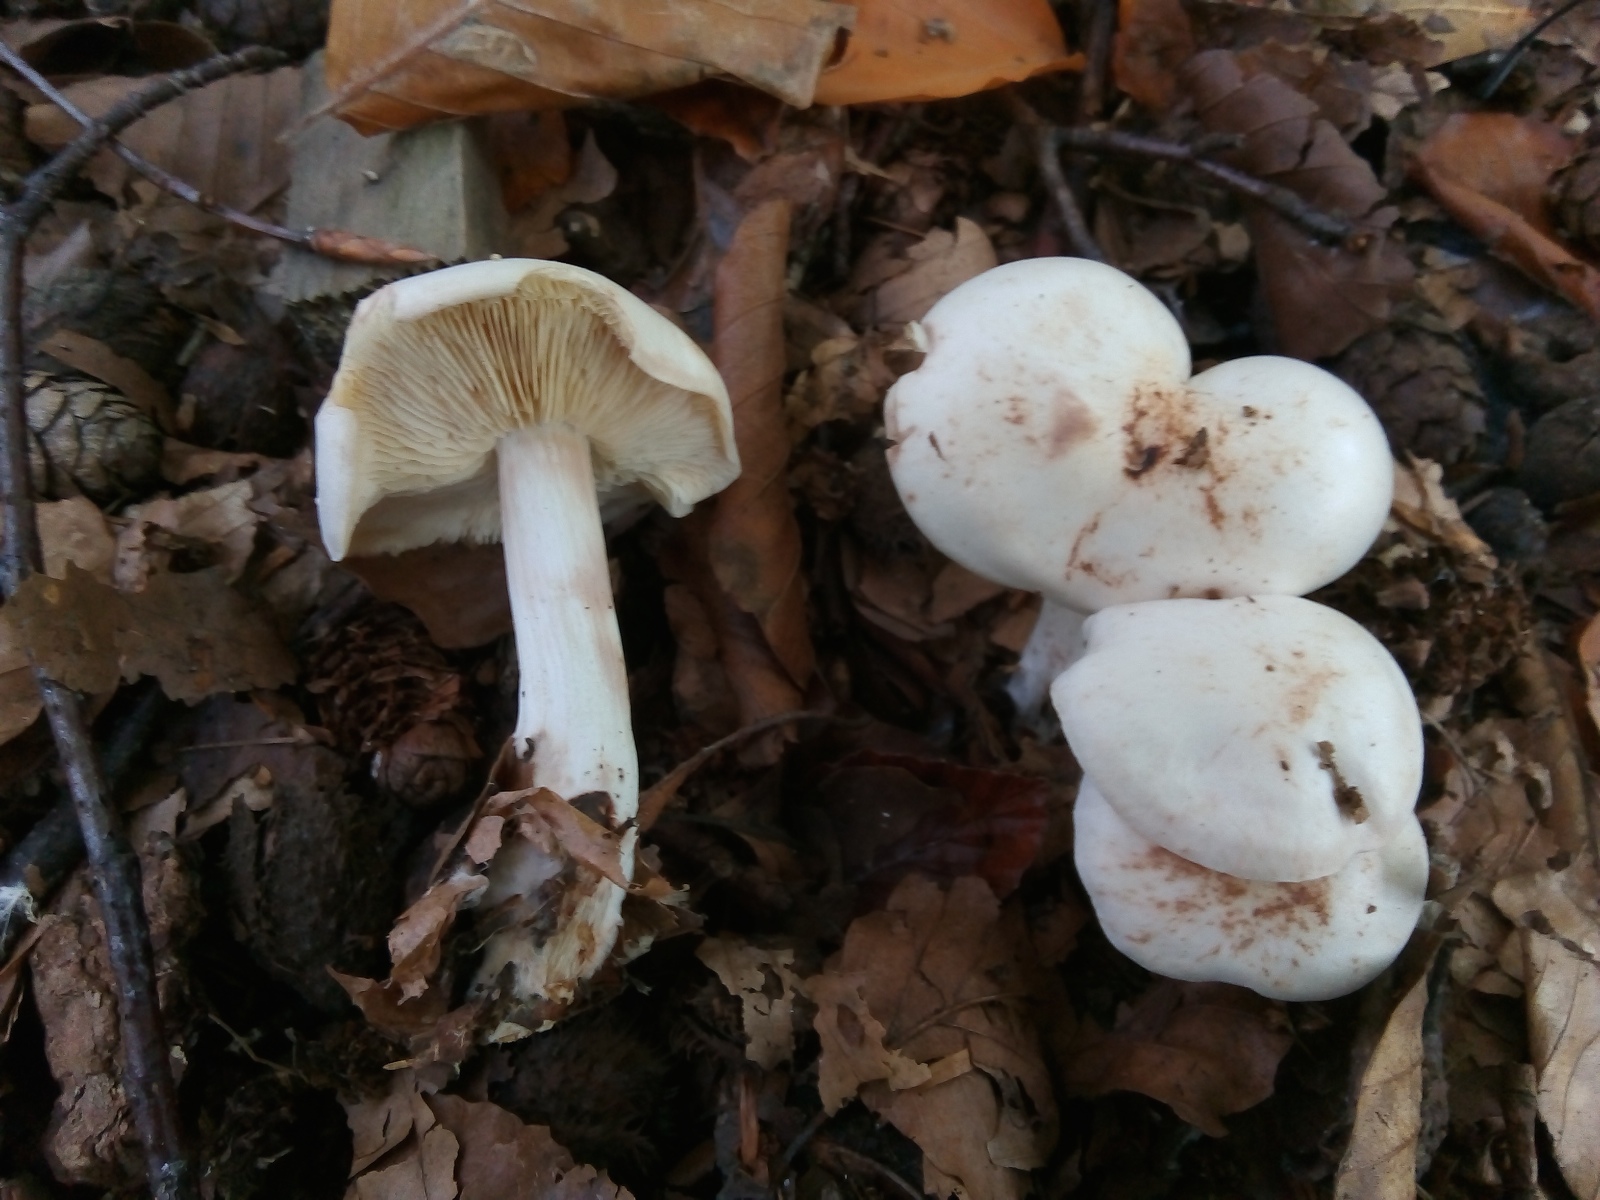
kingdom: Fungi
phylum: Basidiomycota
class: Agaricomycetes
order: Agaricales
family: Omphalotaceae
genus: Rhodocollybia
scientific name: Rhodocollybia maculata
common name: plettet fladhat
